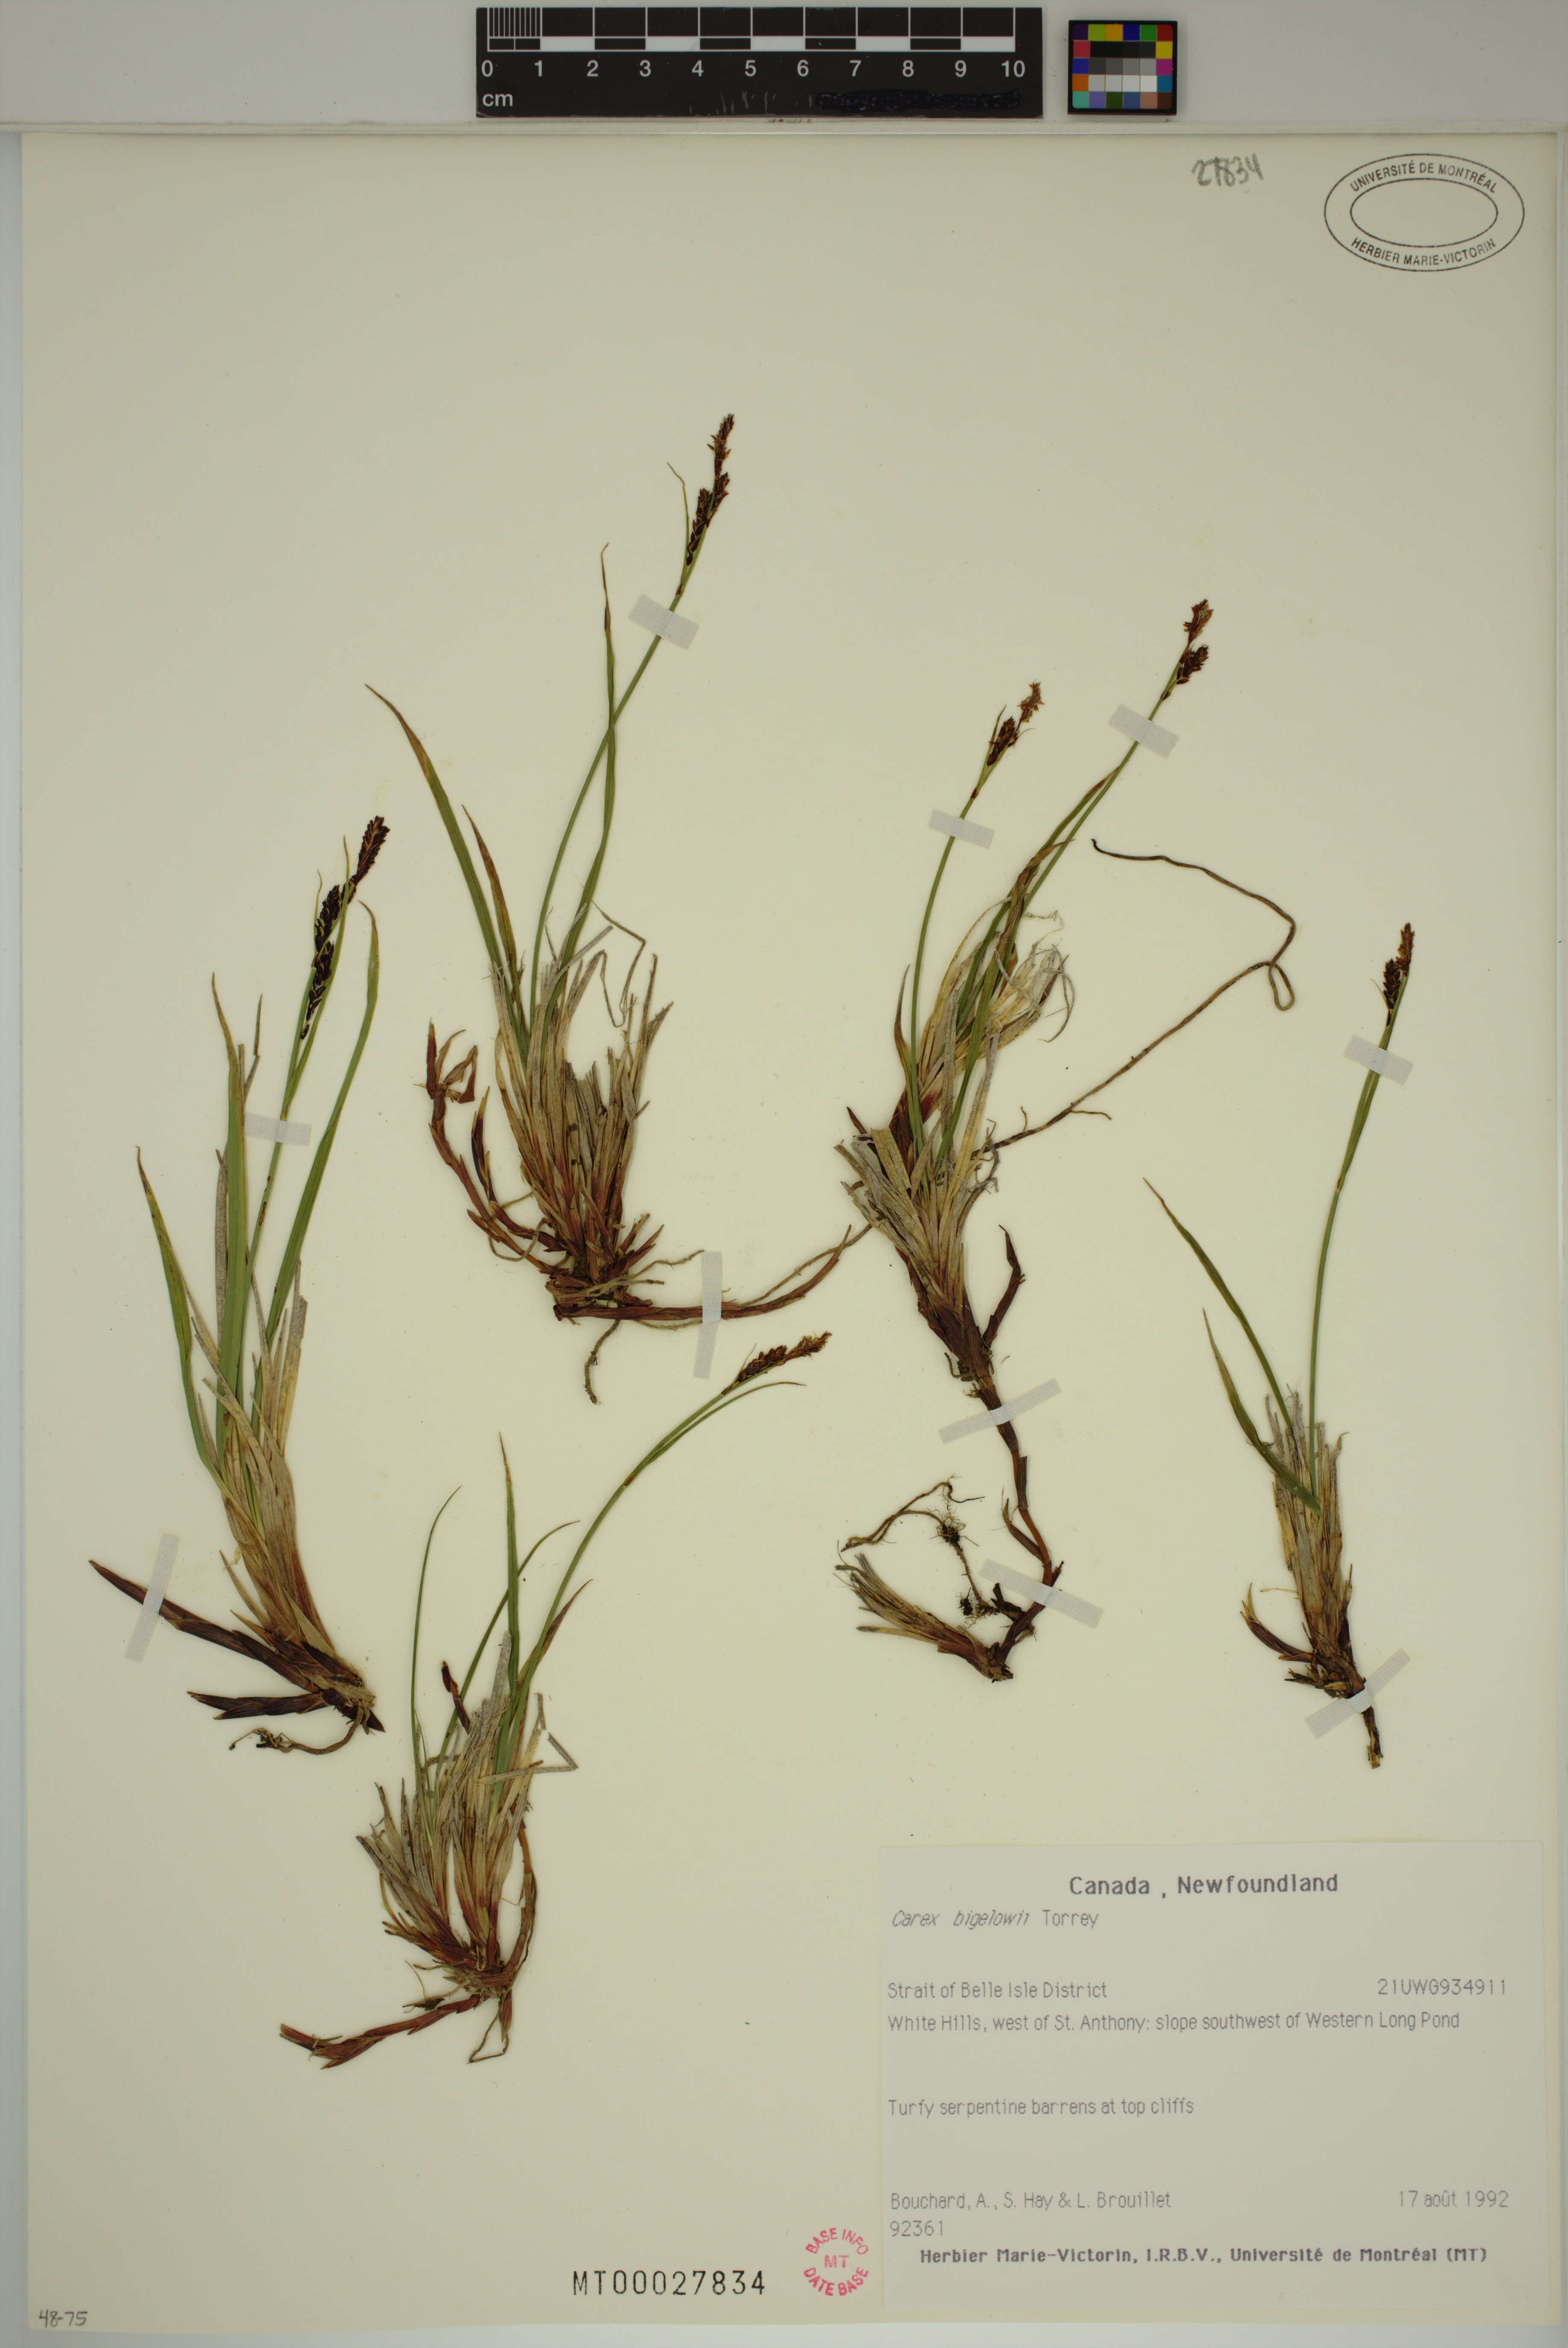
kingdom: Plantae
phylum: Tracheophyta
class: Liliopsida
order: Poales
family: Cyperaceae
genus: Carex
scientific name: Carex bigelowii
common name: Stiff sedge
